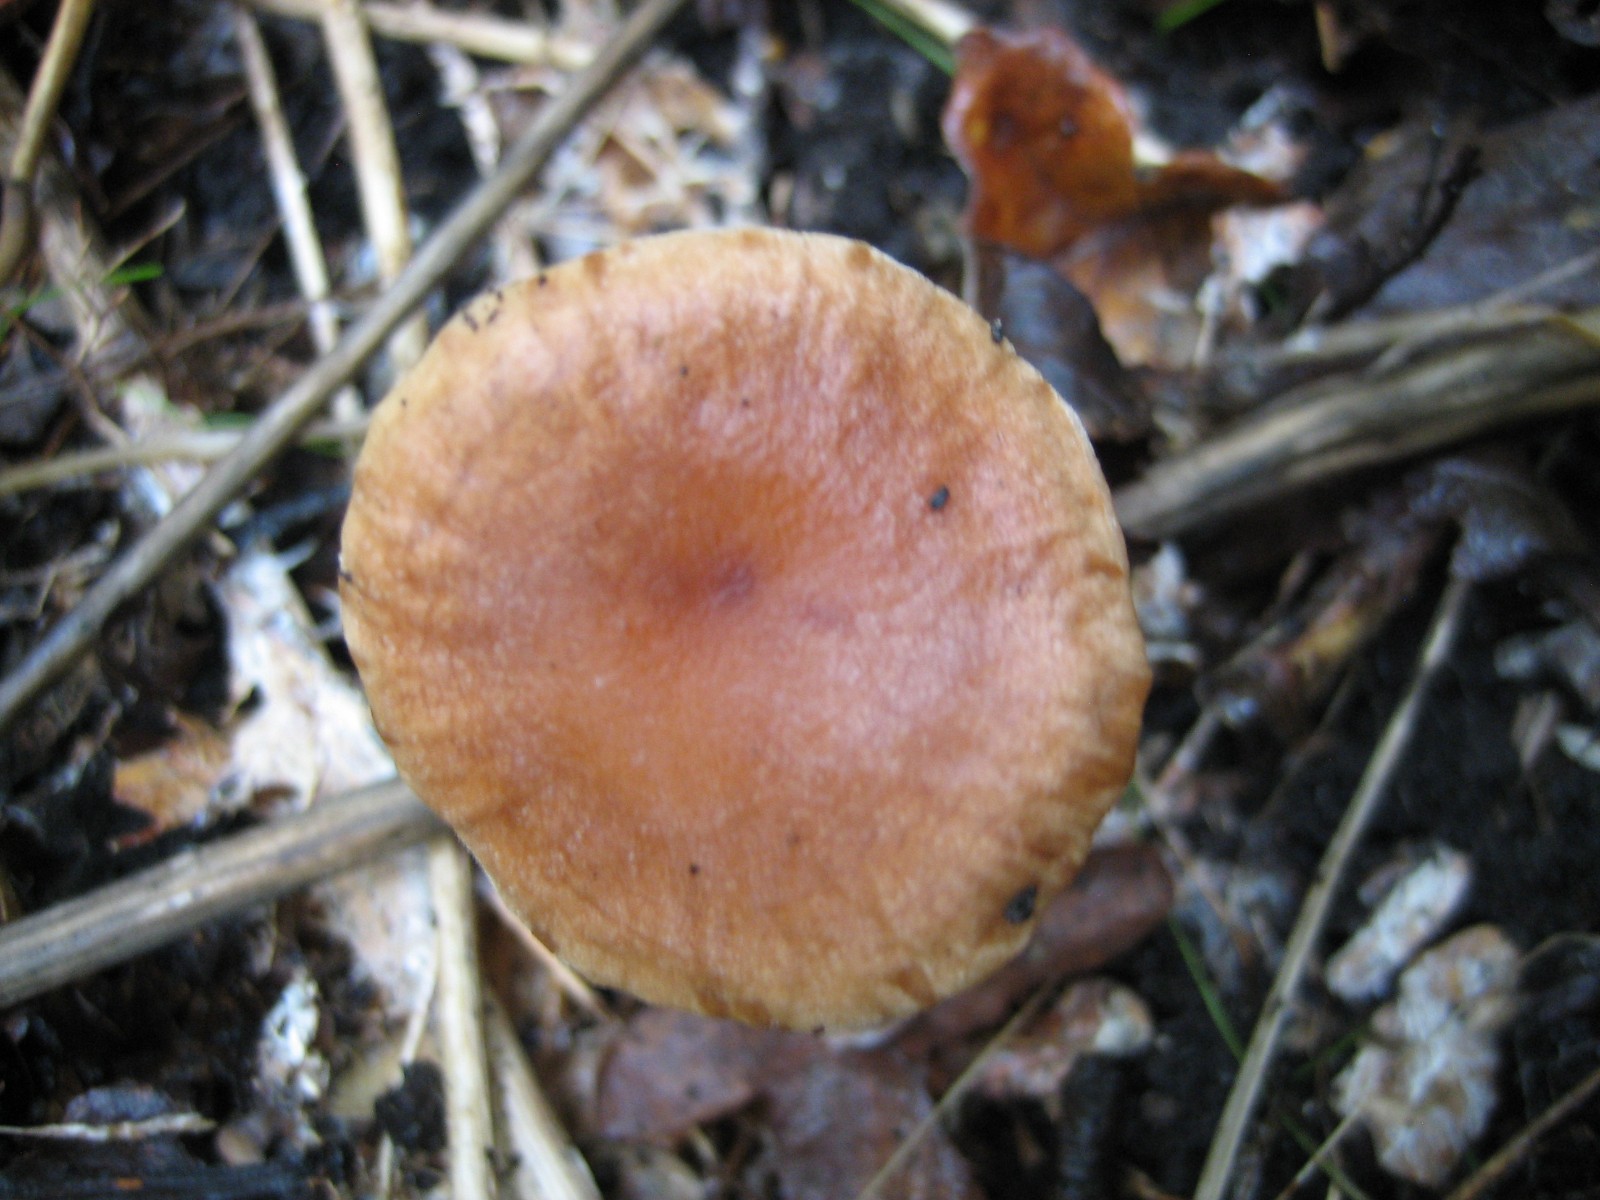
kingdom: Fungi
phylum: Basidiomycota
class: Agaricomycetes
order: Agaricales
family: Omphalotaceae
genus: Collybiopsis
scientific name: Collybiopsis peronata
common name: bestøvlet fladhat
